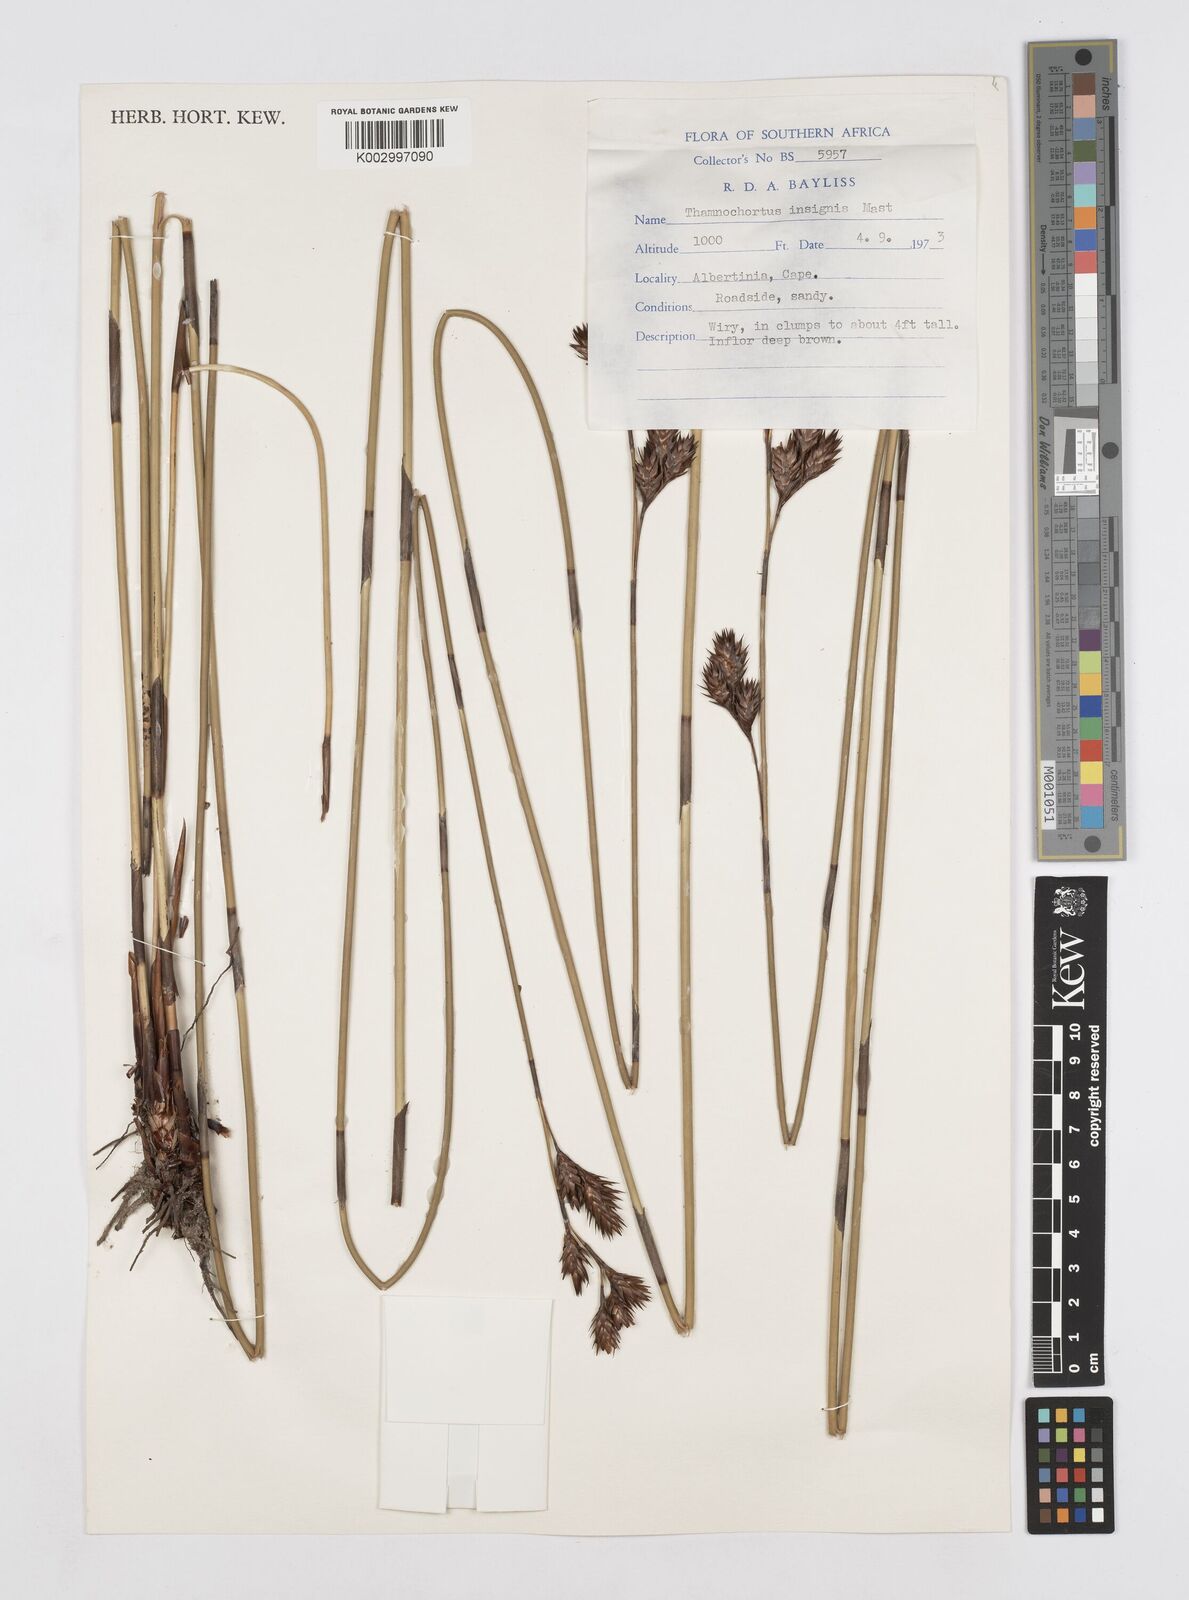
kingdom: Plantae
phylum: Tracheophyta
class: Liliopsida
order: Poales
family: Restionaceae
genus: Thamnochortus
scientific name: Thamnochortus insignis
